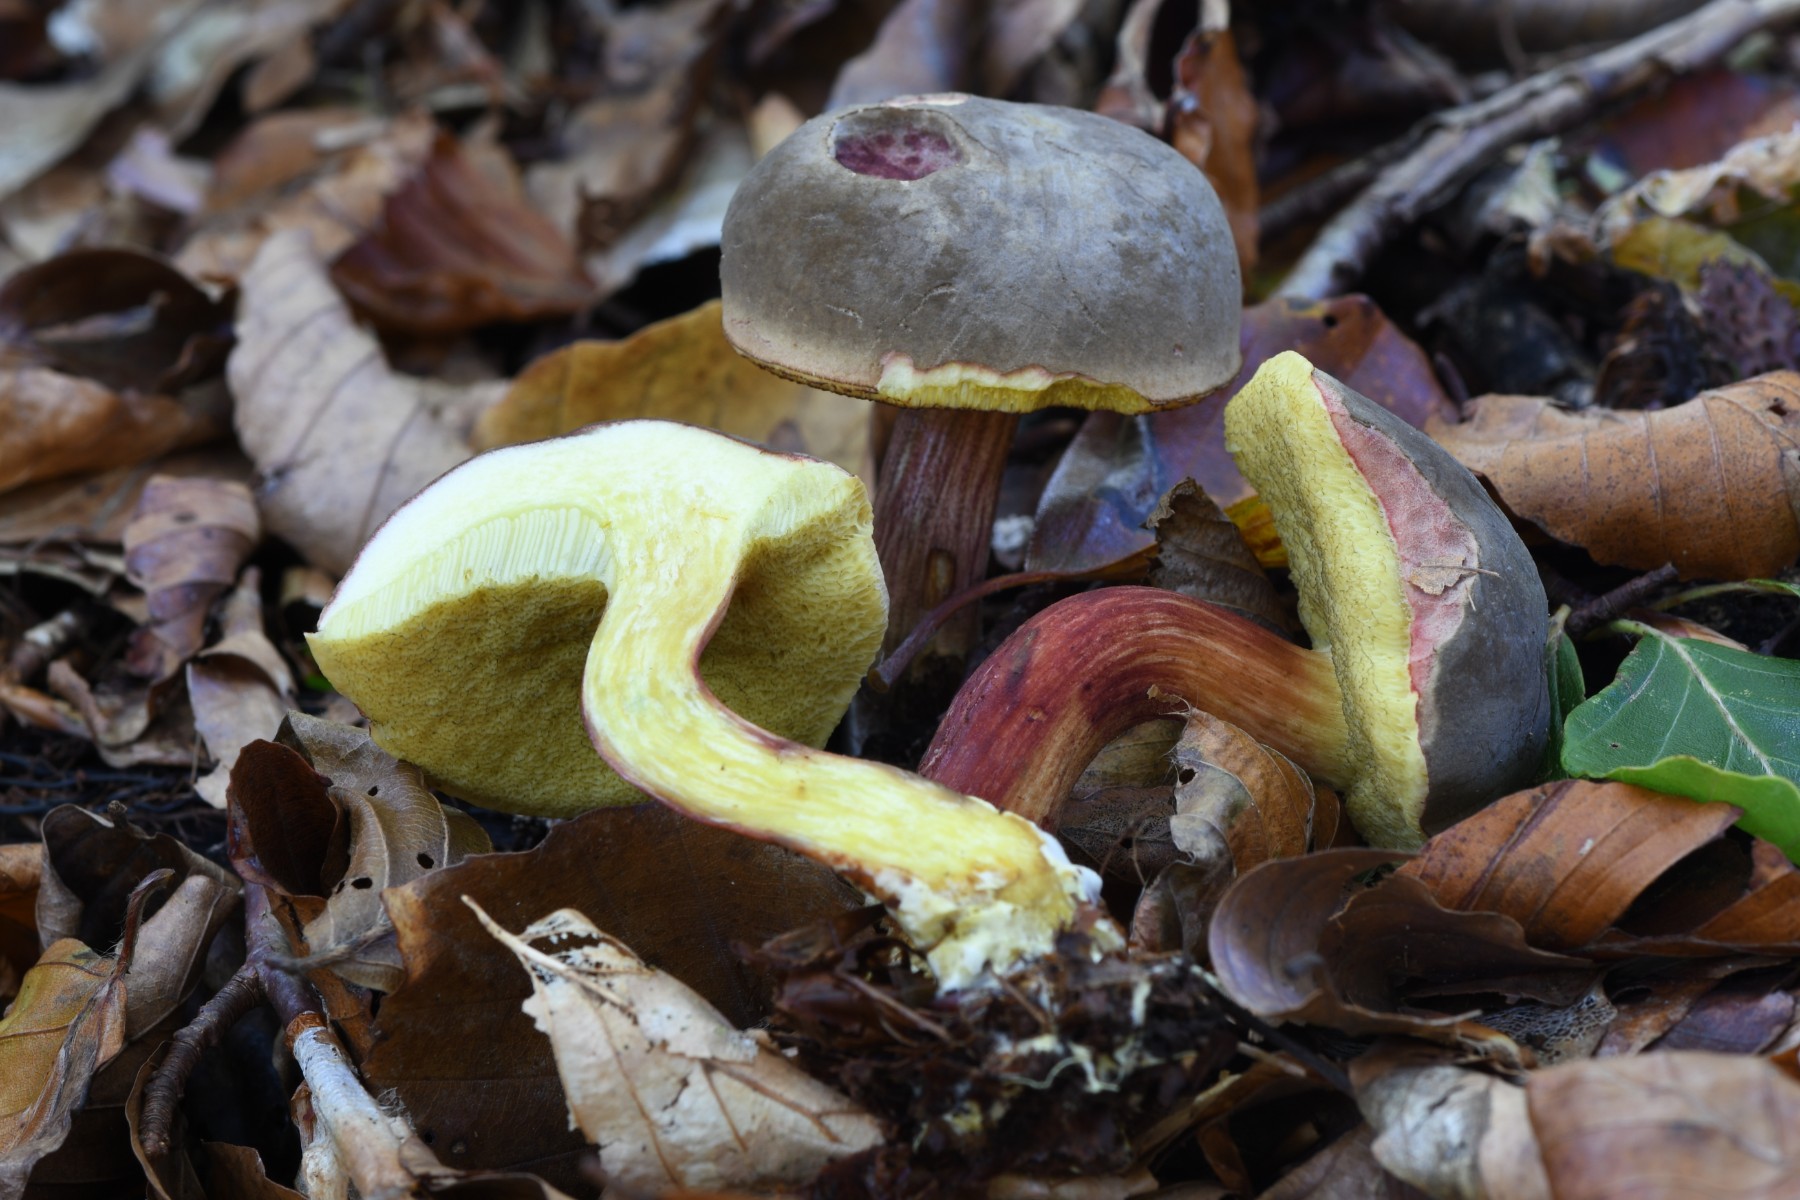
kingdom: Fungi
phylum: Basidiomycota
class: Agaricomycetes
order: Boletales
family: Boletaceae
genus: Xerocomellus
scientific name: Xerocomellus pruinatus
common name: dugget rørhat
